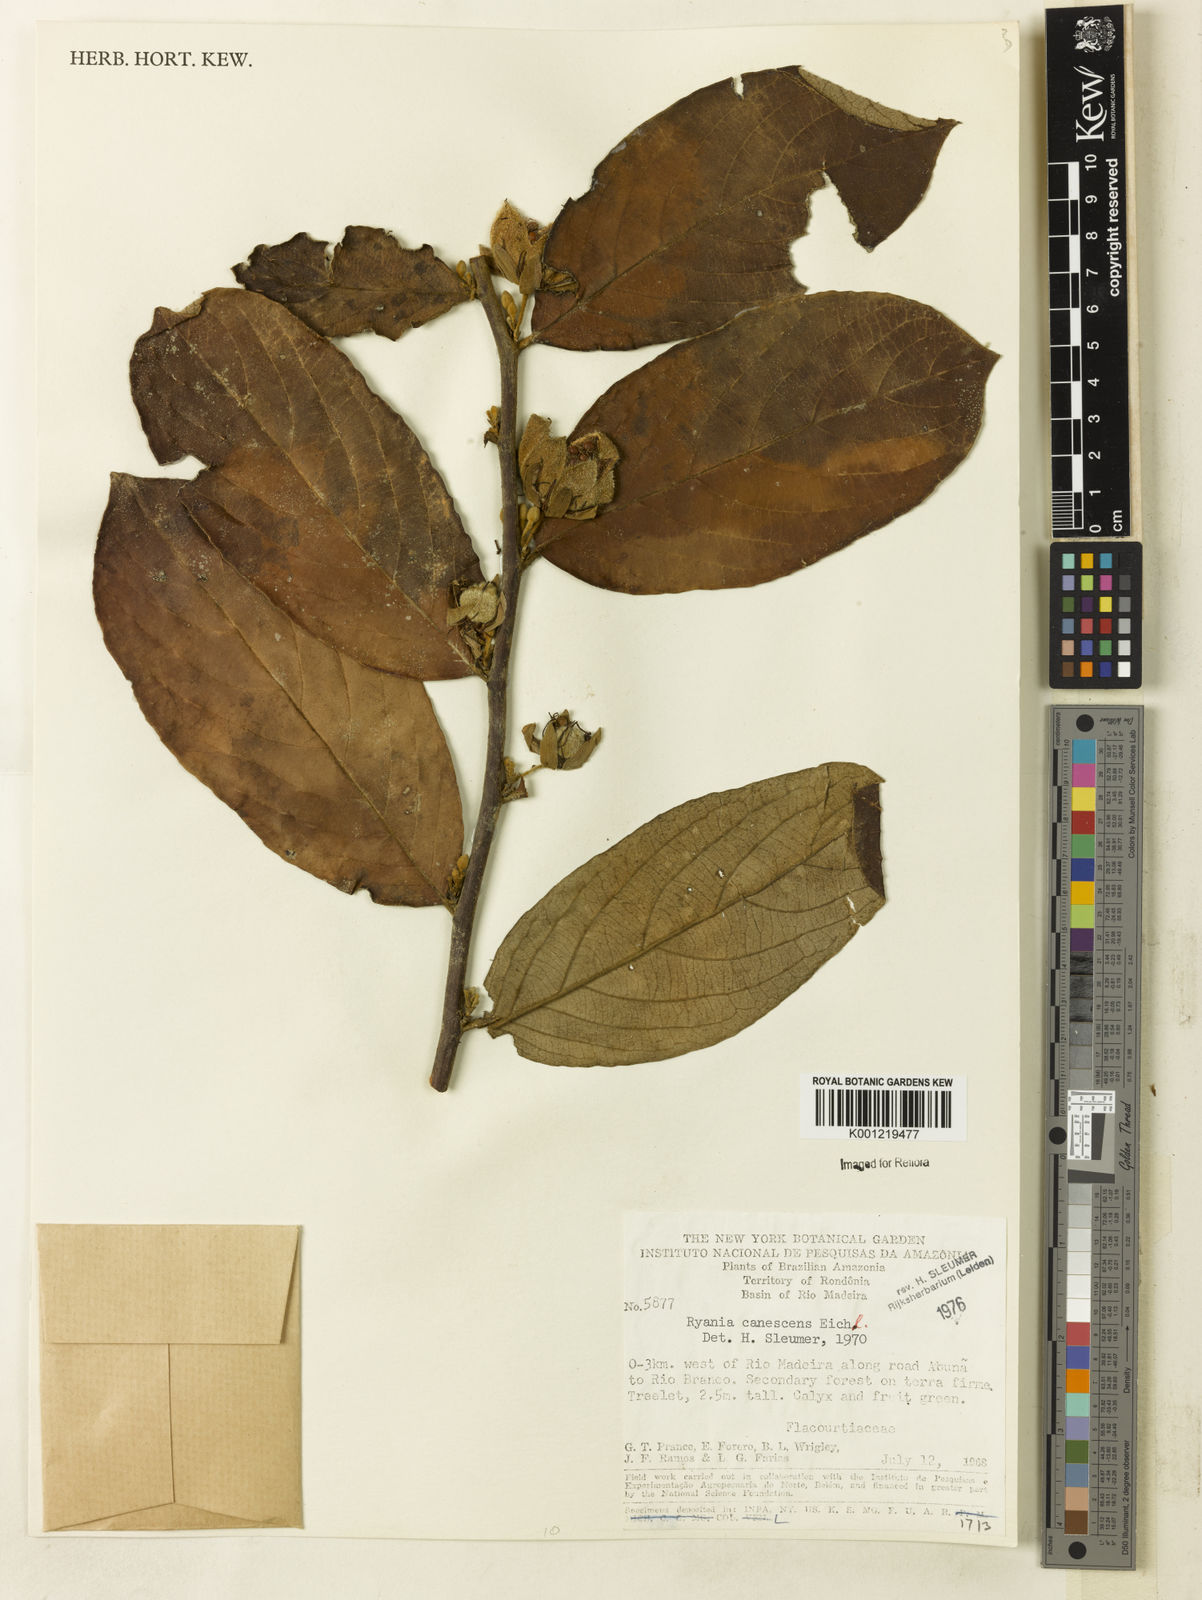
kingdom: Plantae
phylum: Tracheophyta
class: Magnoliopsida
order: Malpighiales
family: Salicaceae
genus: Ryania
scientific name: Ryania canescens
